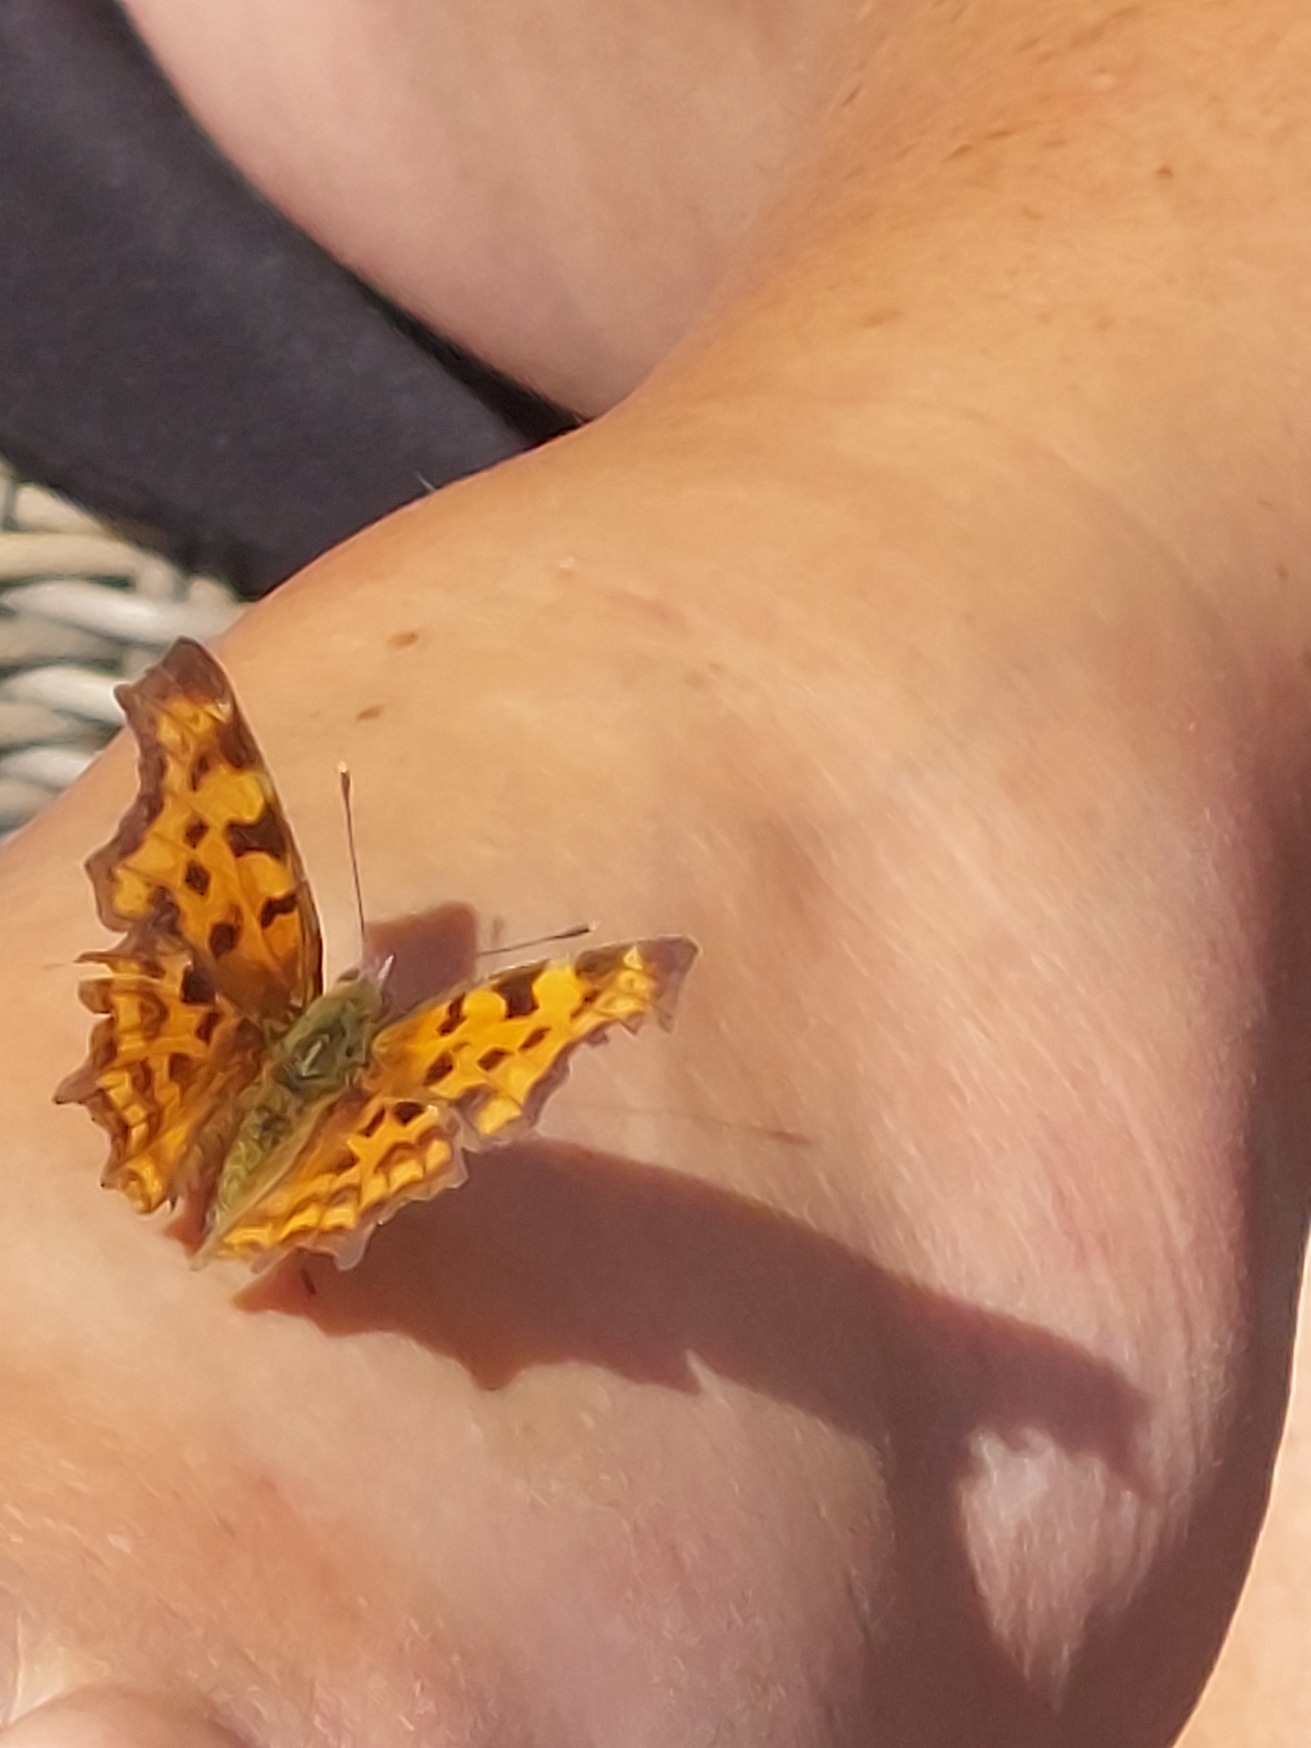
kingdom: Animalia
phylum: Arthropoda
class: Insecta
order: Lepidoptera
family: Nymphalidae
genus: Polygonia
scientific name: Polygonia c-album
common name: Det hvide C
